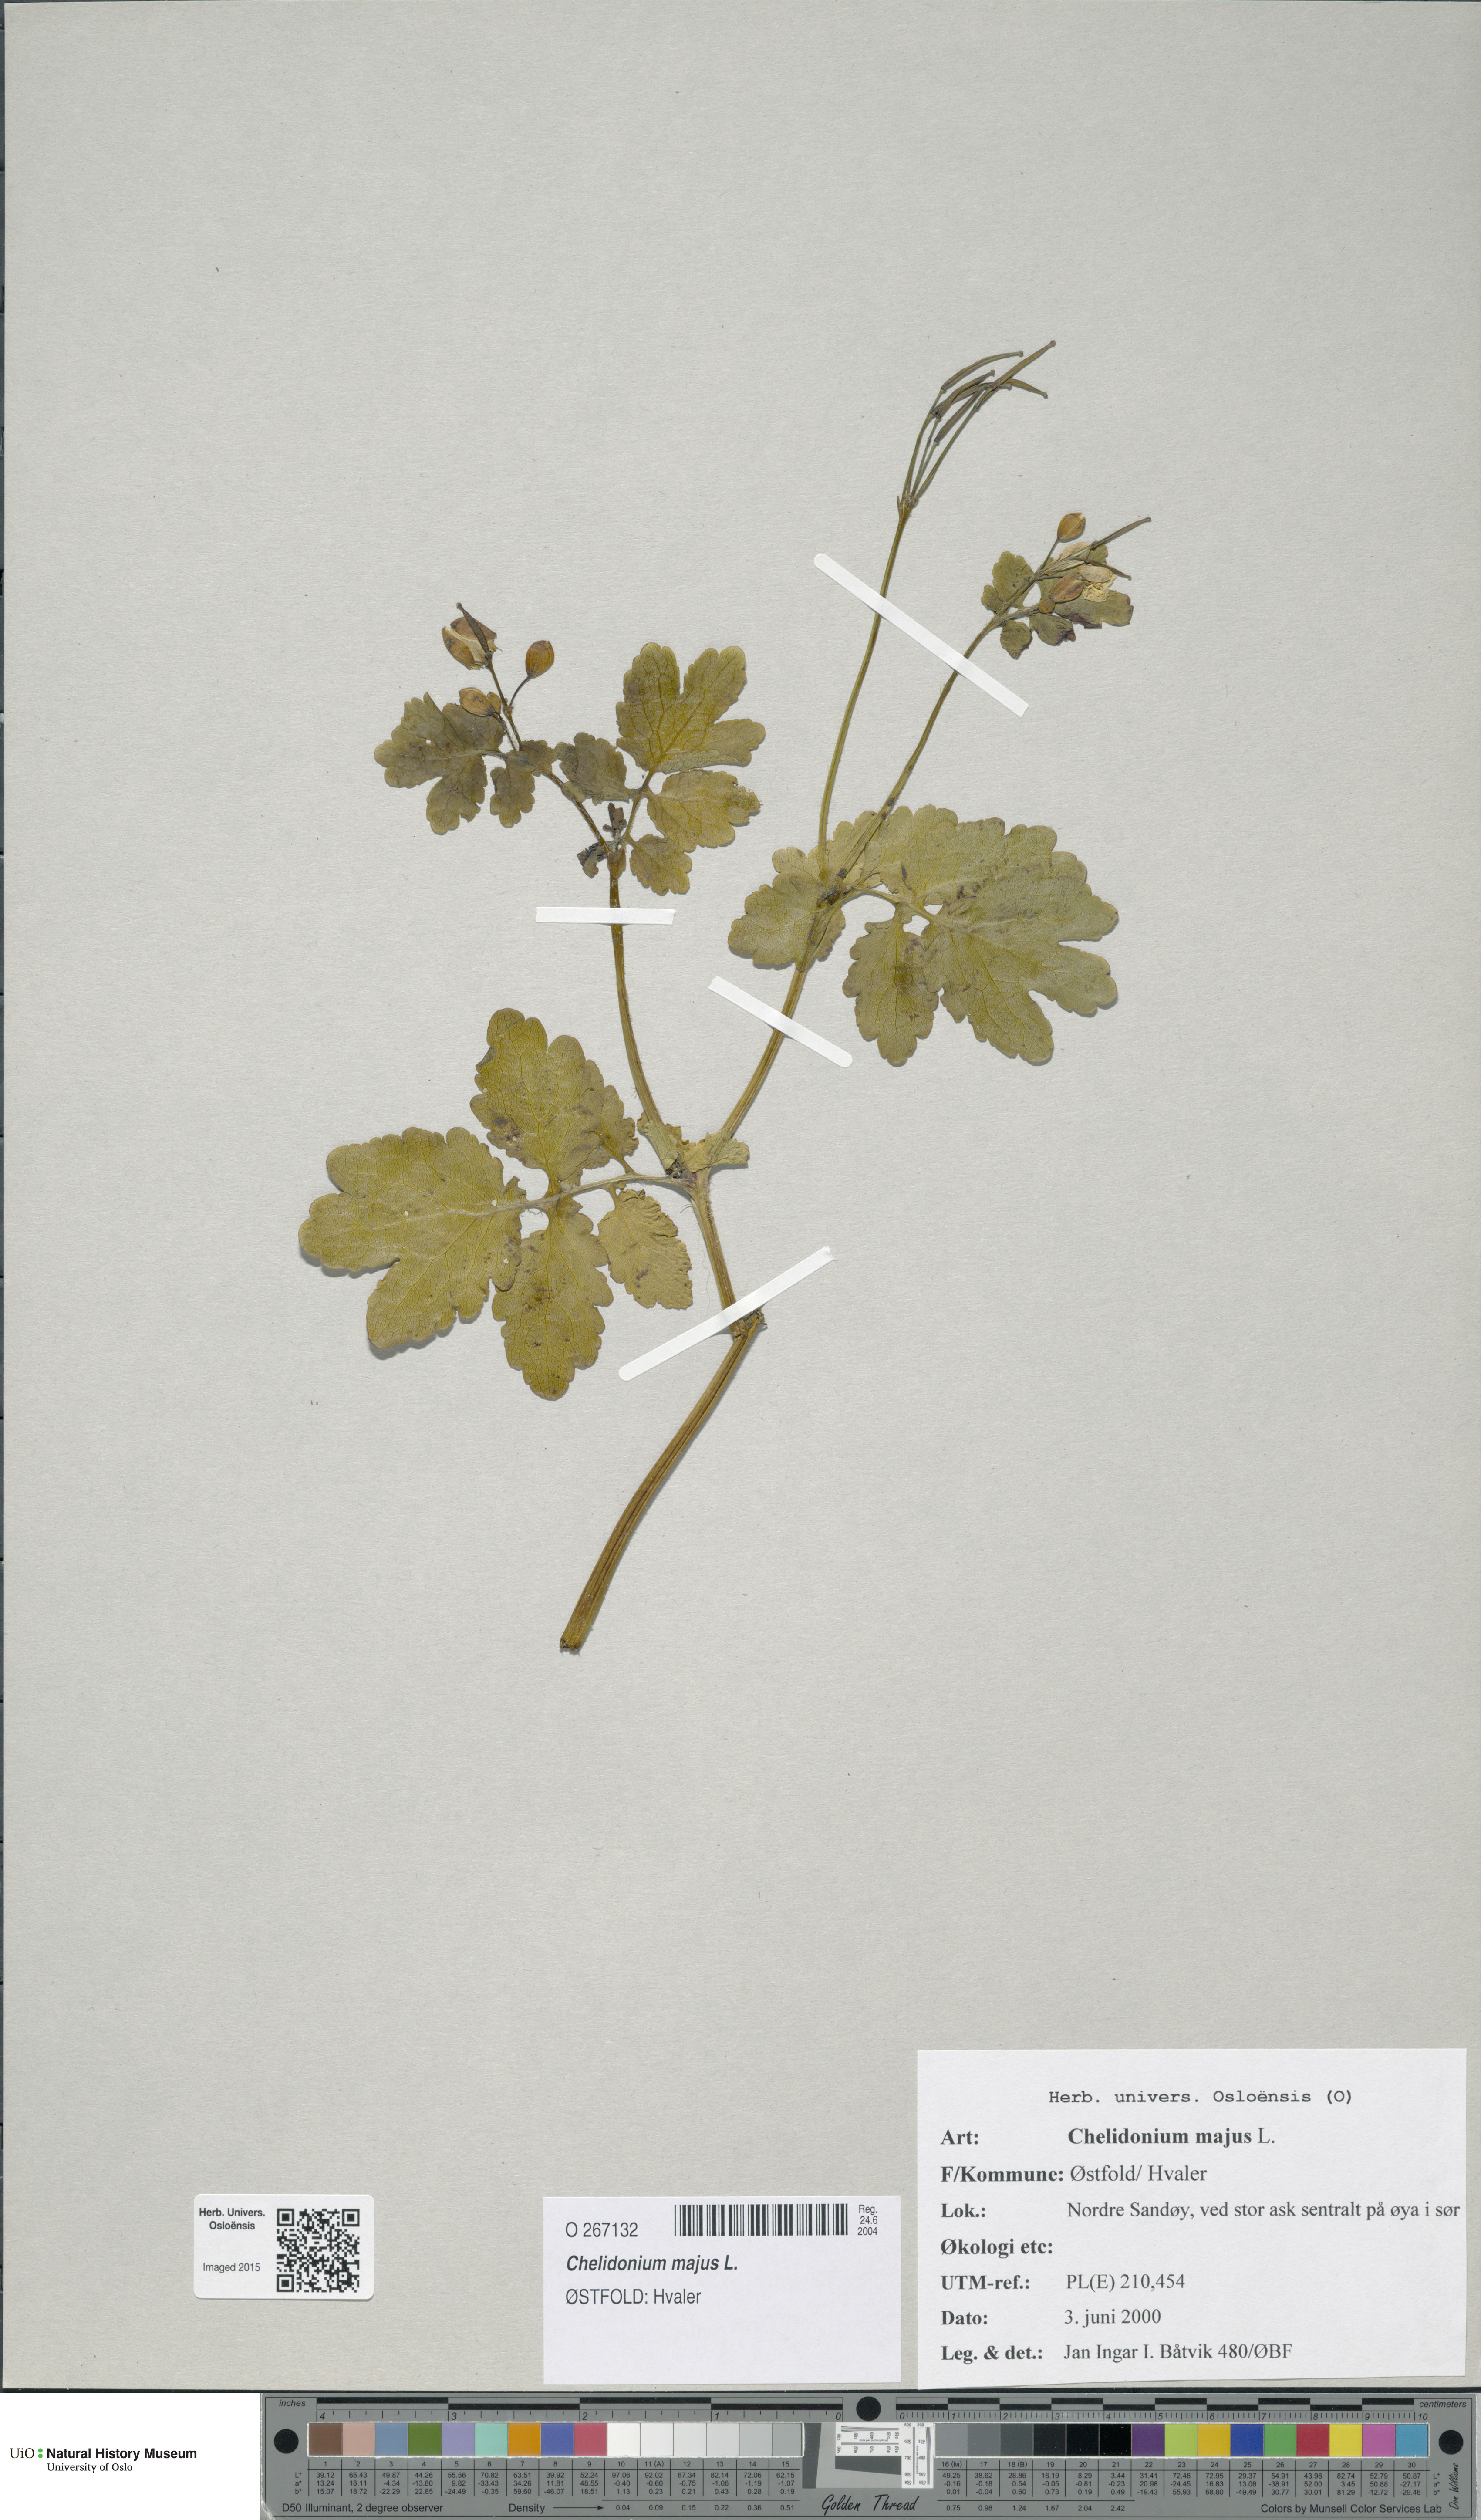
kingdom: Plantae
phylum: Tracheophyta
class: Magnoliopsida
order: Ranunculales
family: Papaveraceae
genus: Chelidonium
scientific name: Chelidonium majus
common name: Greater celandine
